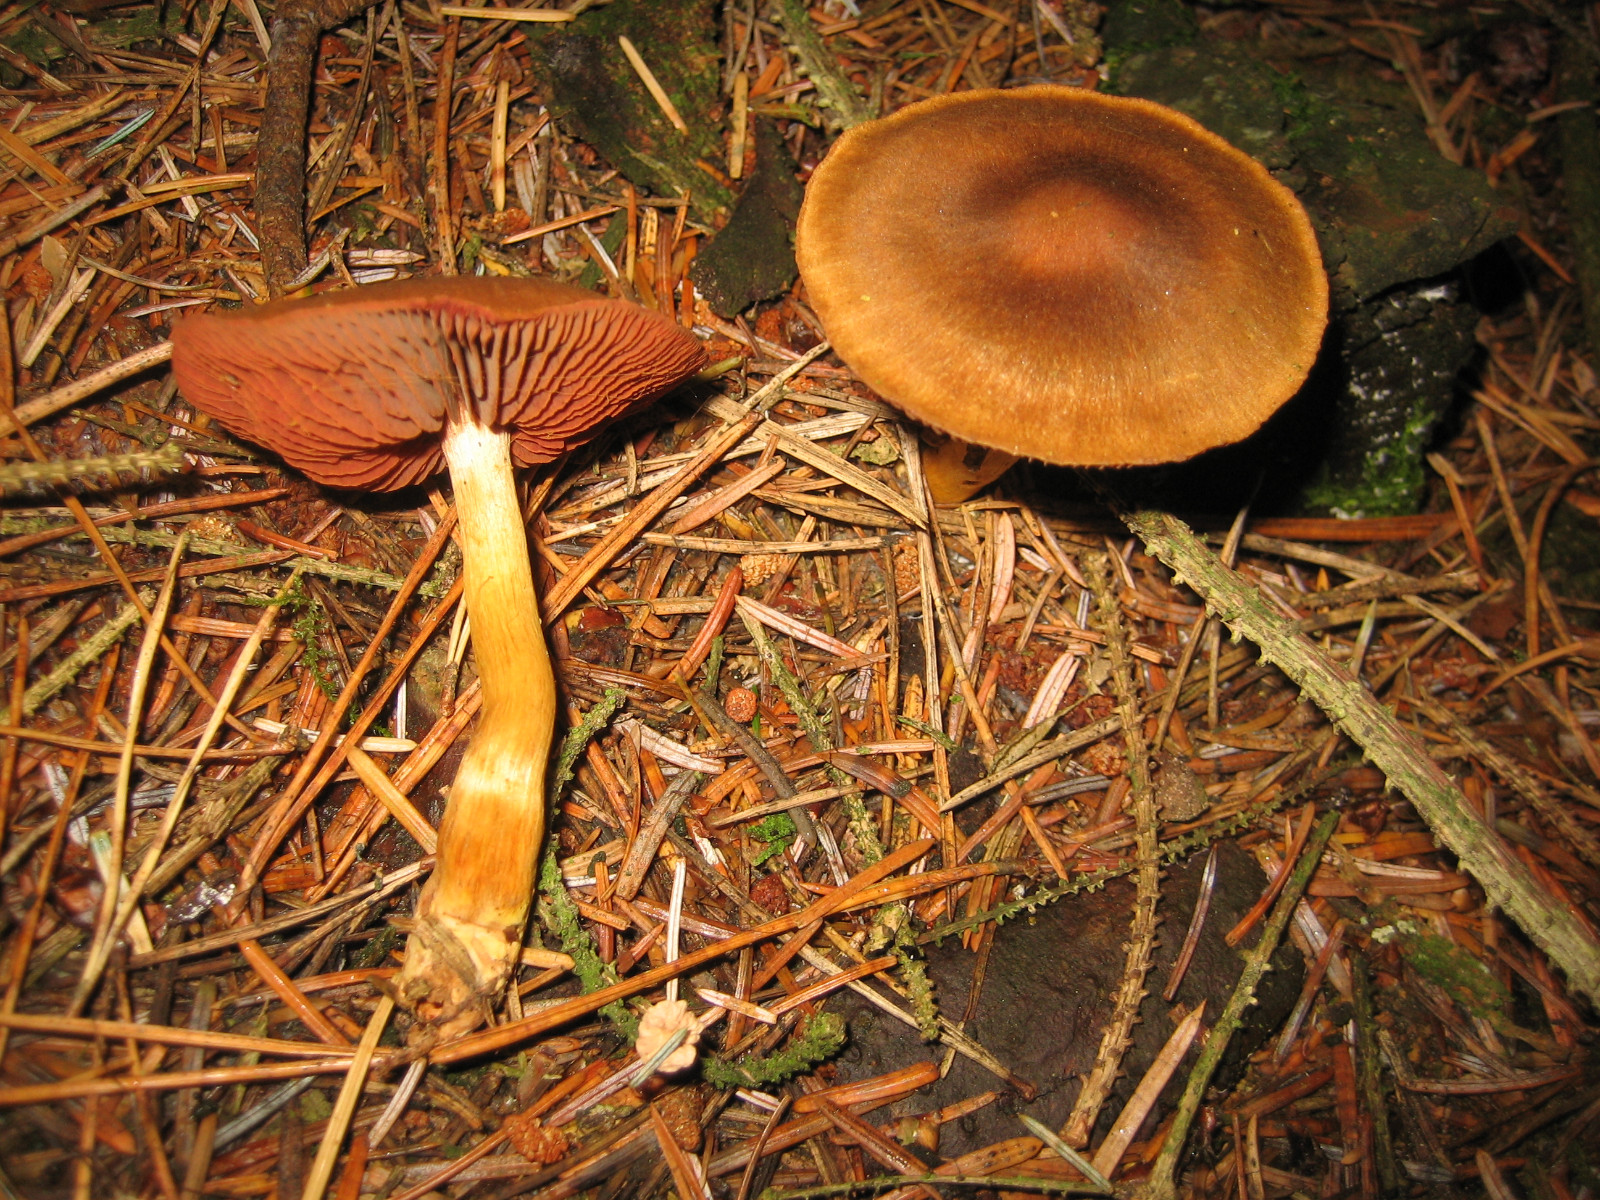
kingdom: Fungi
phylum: Basidiomycota
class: Agaricomycetes
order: Agaricales
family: Cortinariaceae
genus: Cortinarius
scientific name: Cortinarius
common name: cinnoberbladet slørhat
